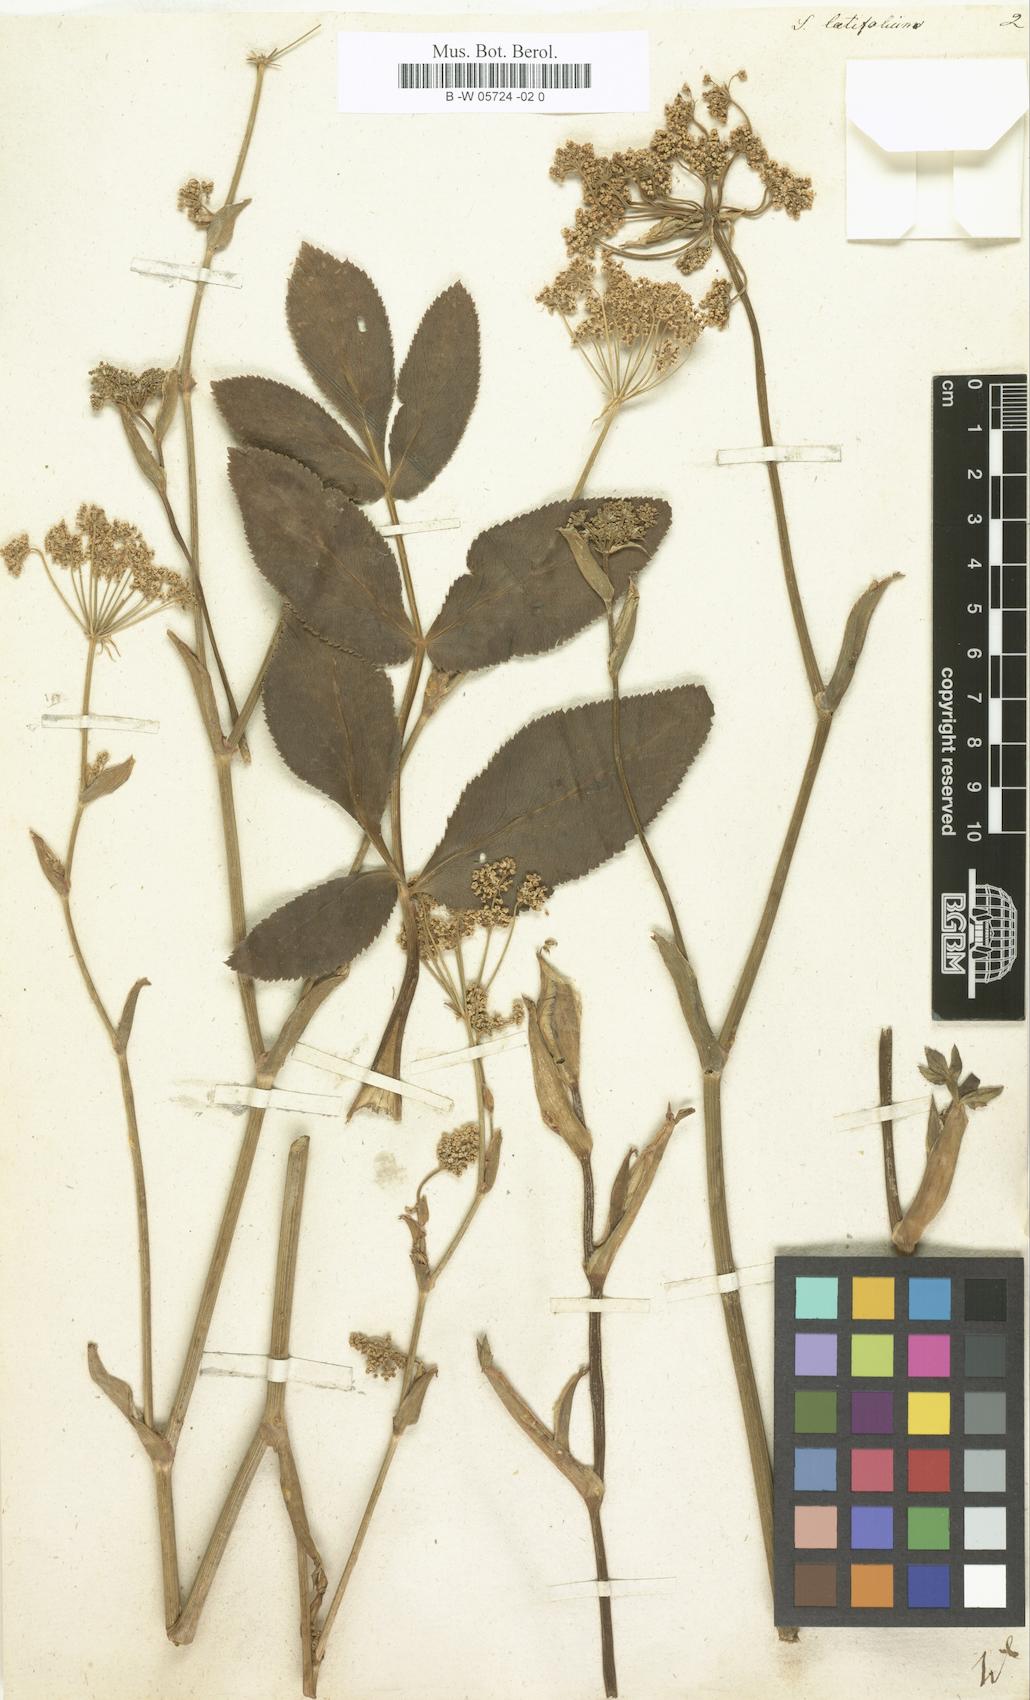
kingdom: Plantae
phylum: Tracheophyta
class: Magnoliopsida
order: Apiales
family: Apiaceae
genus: Macroselinum
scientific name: Macroselinum latifolium
